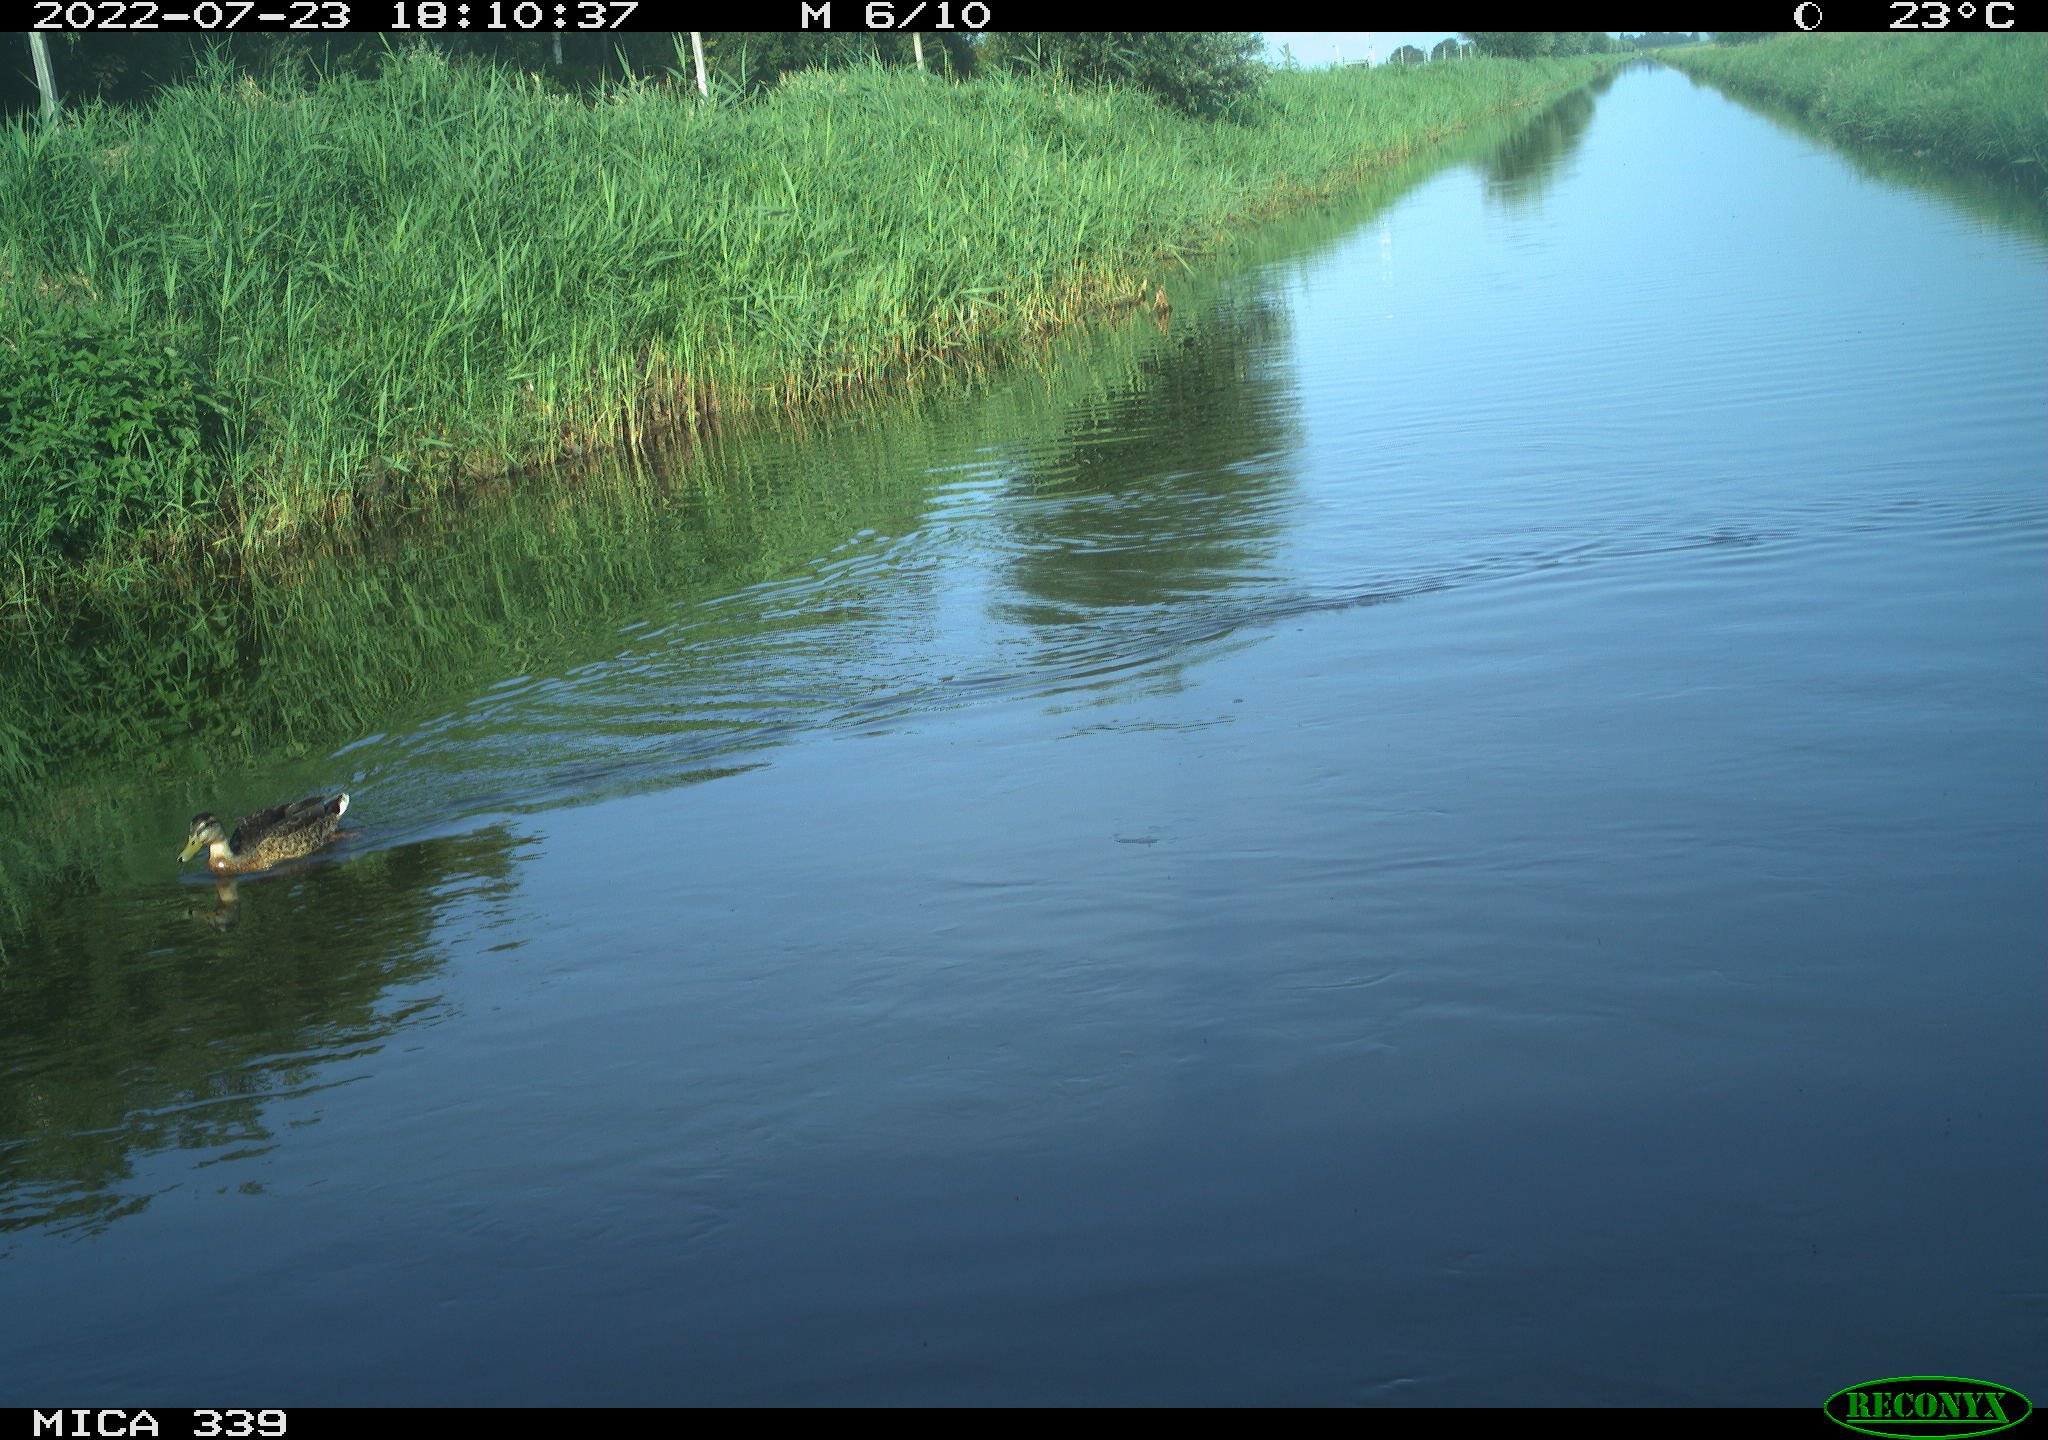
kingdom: Animalia
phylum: Chordata
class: Aves
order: Anseriformes
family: Anatidae
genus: Anas
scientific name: Anas platyrhynchos
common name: Mallard
